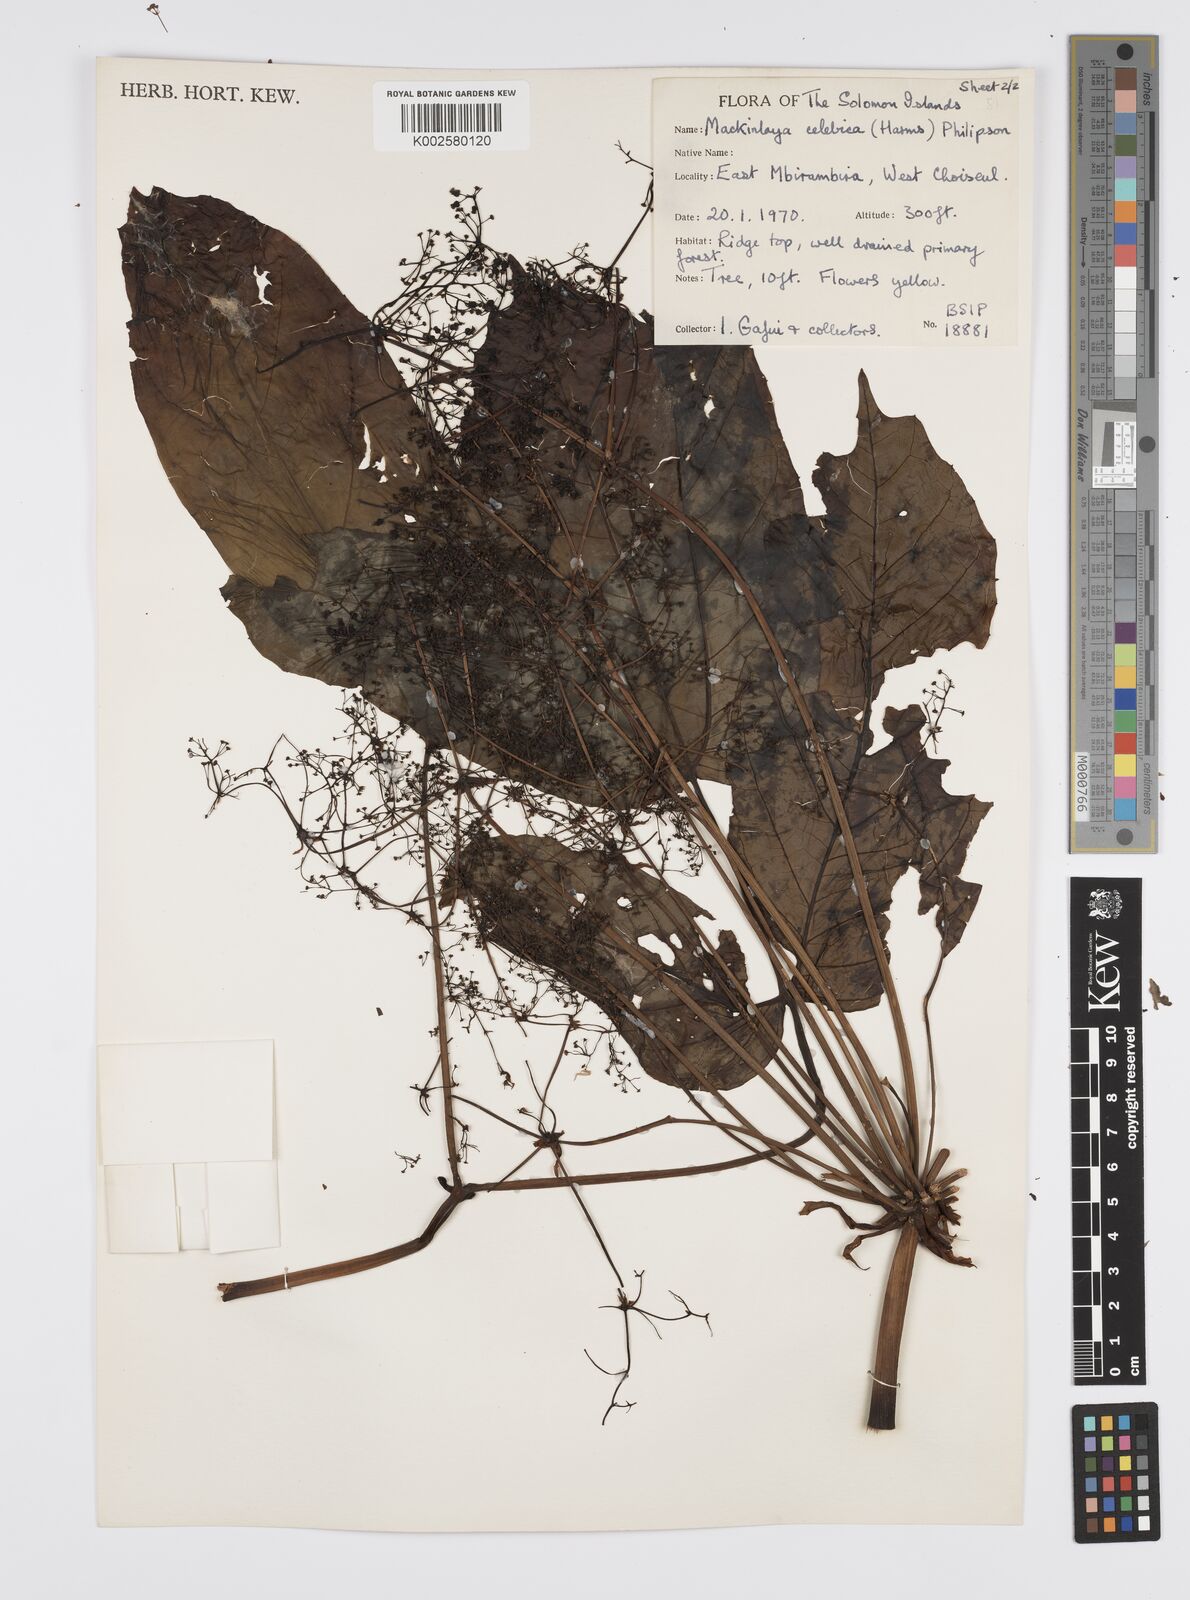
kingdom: Plantae
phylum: Tracheophyta
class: Magnoliopsida
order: Apiales
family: Apiaceae
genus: Mackinlaya
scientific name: Mackinlaya celebica
